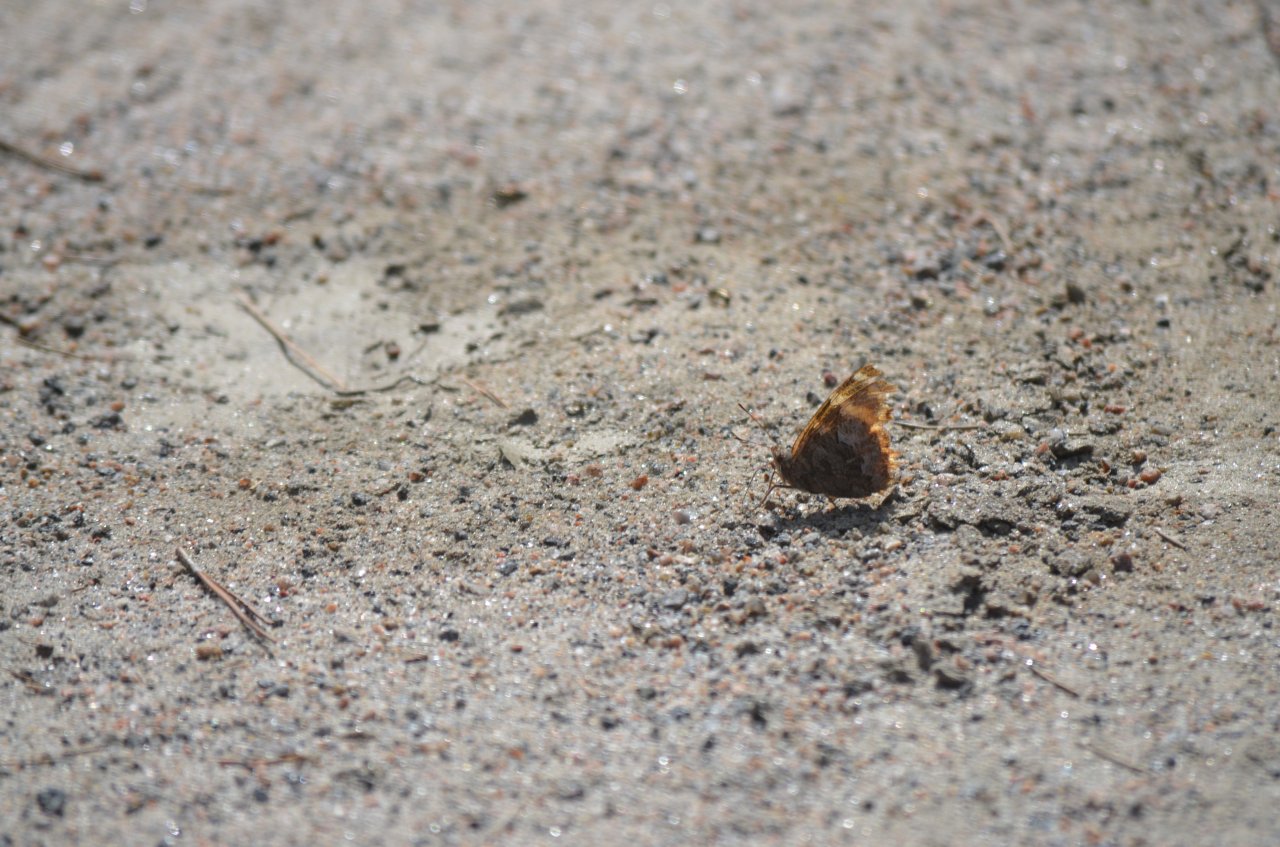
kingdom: Animalia
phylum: Arthropoda
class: Insecta
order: Lepidoptera
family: Nymphalidae
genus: Polygonia
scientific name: Polygonia vaualbum
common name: Compton Tortoiseshell
